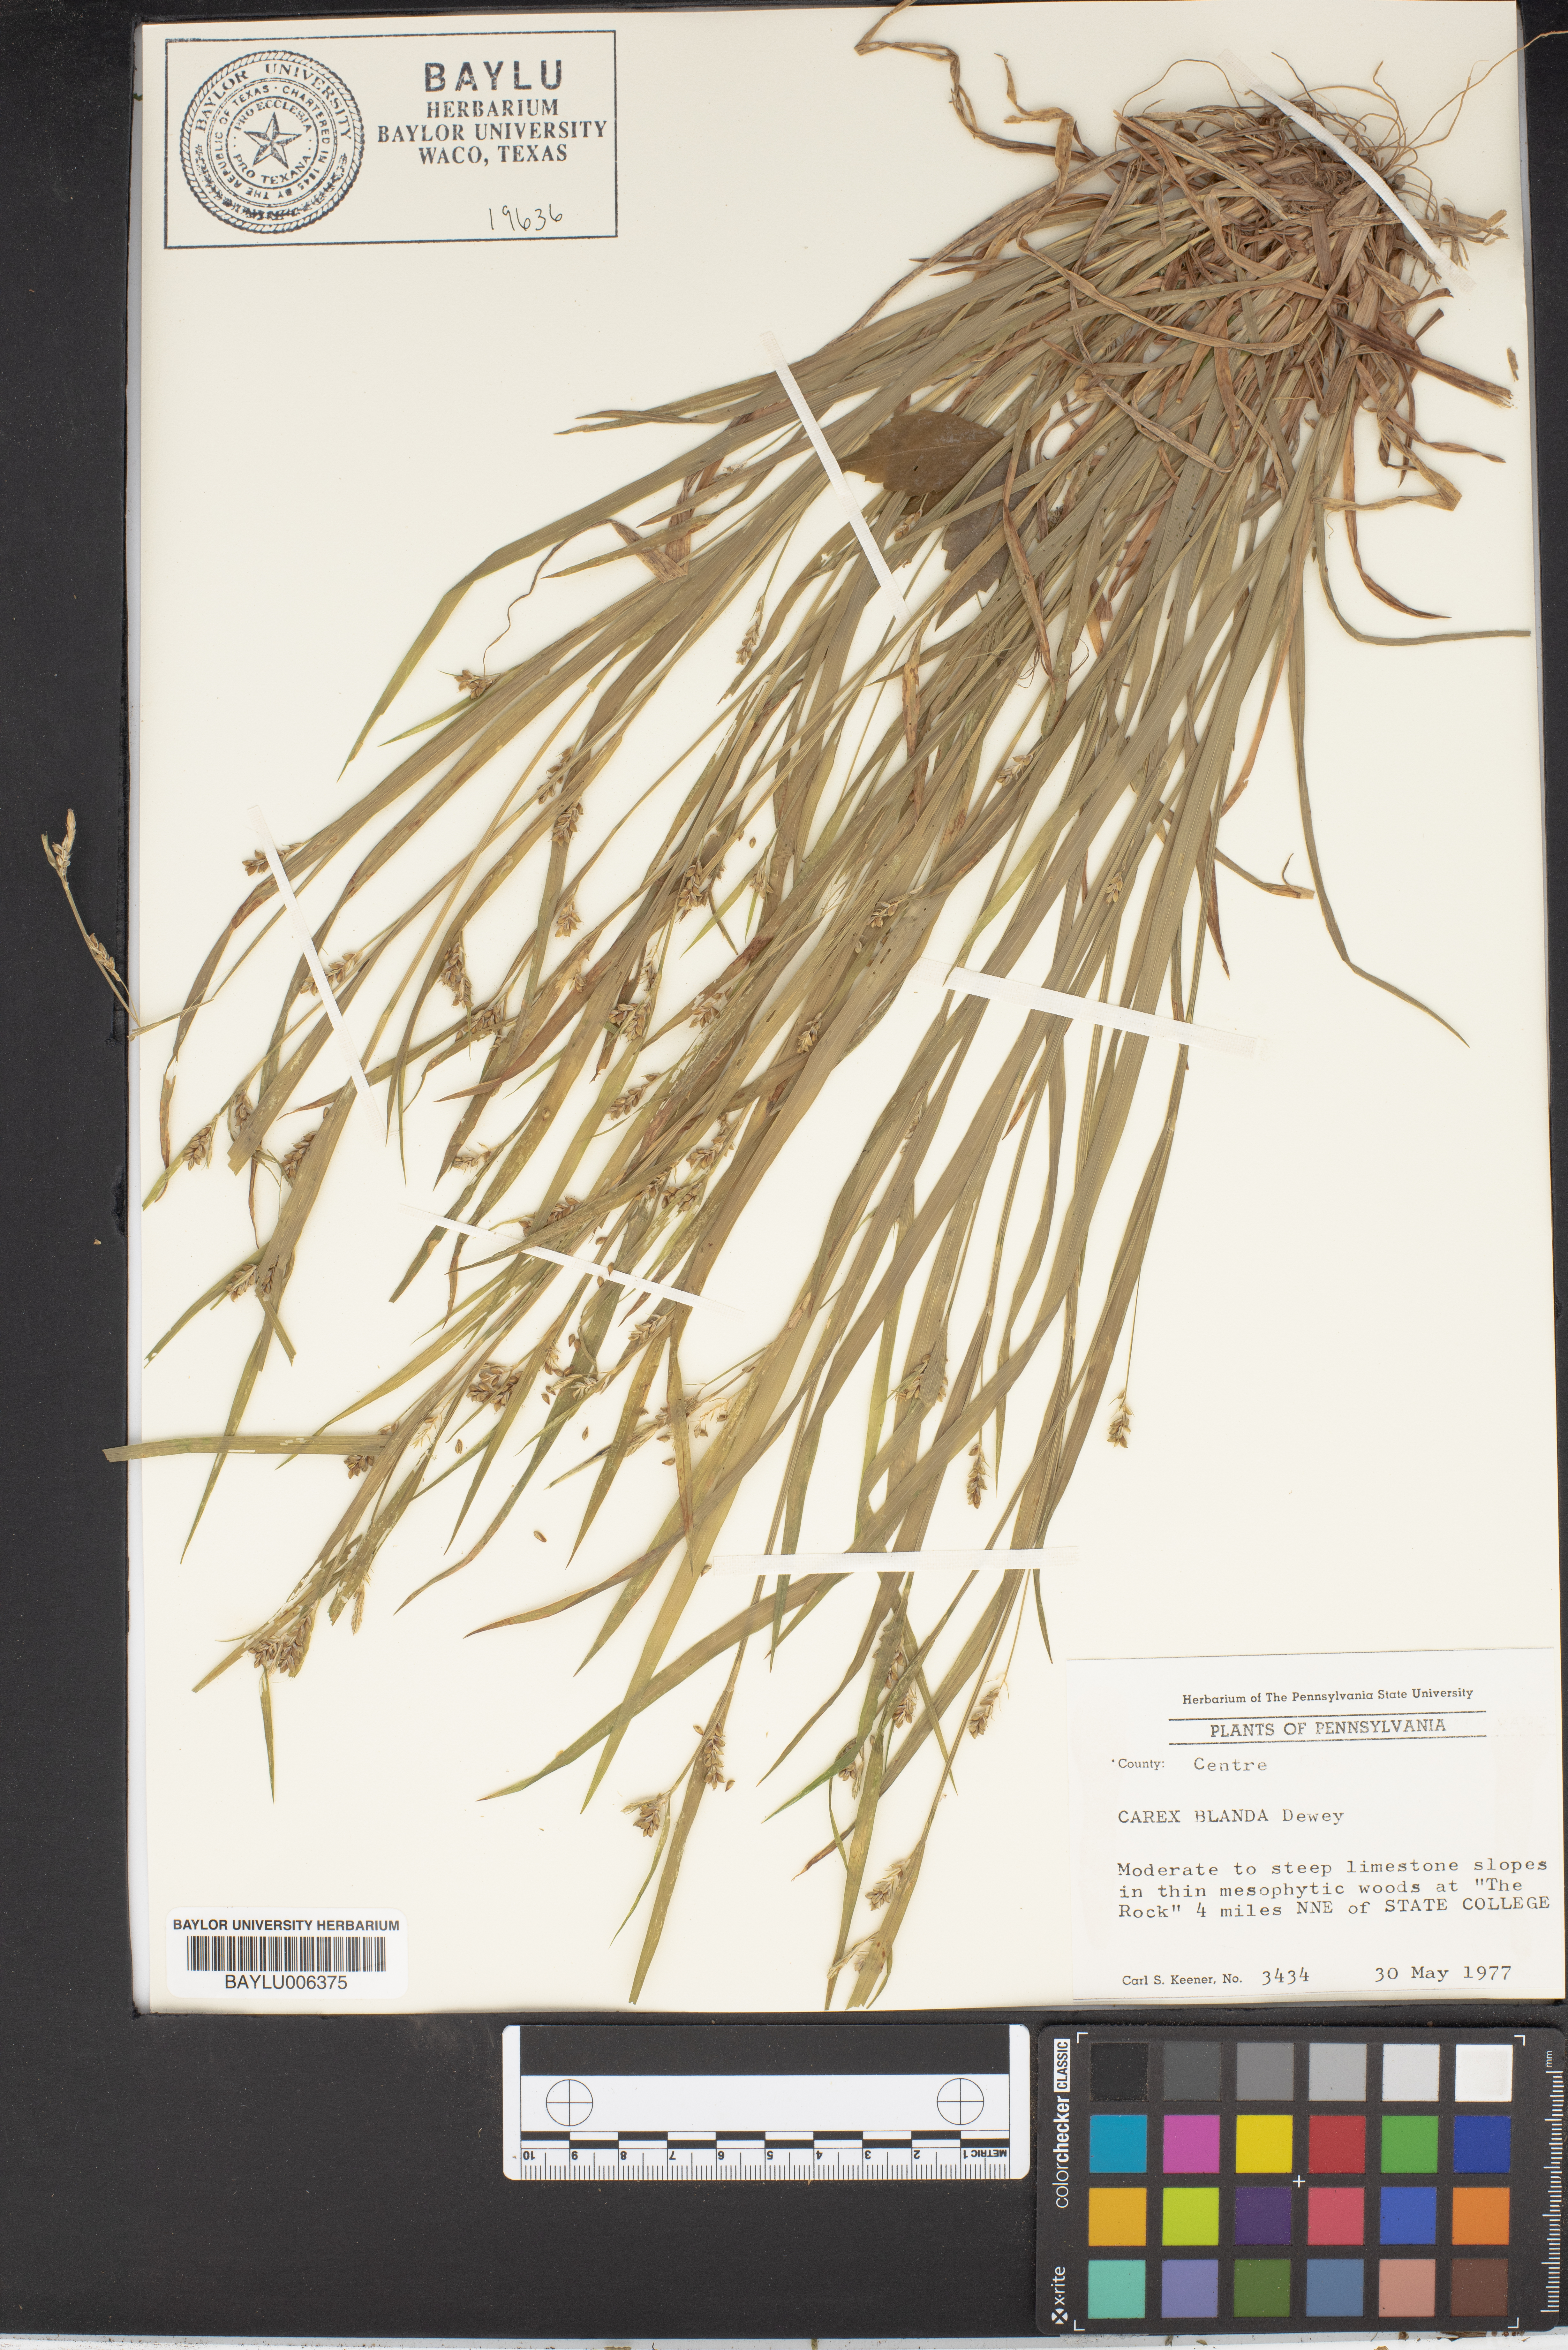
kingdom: Plantae
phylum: Tracheophyta
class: Liliopsida
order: Poales
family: Cyperaceae
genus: Carex
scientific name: Carex blanda
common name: Bland sedge
